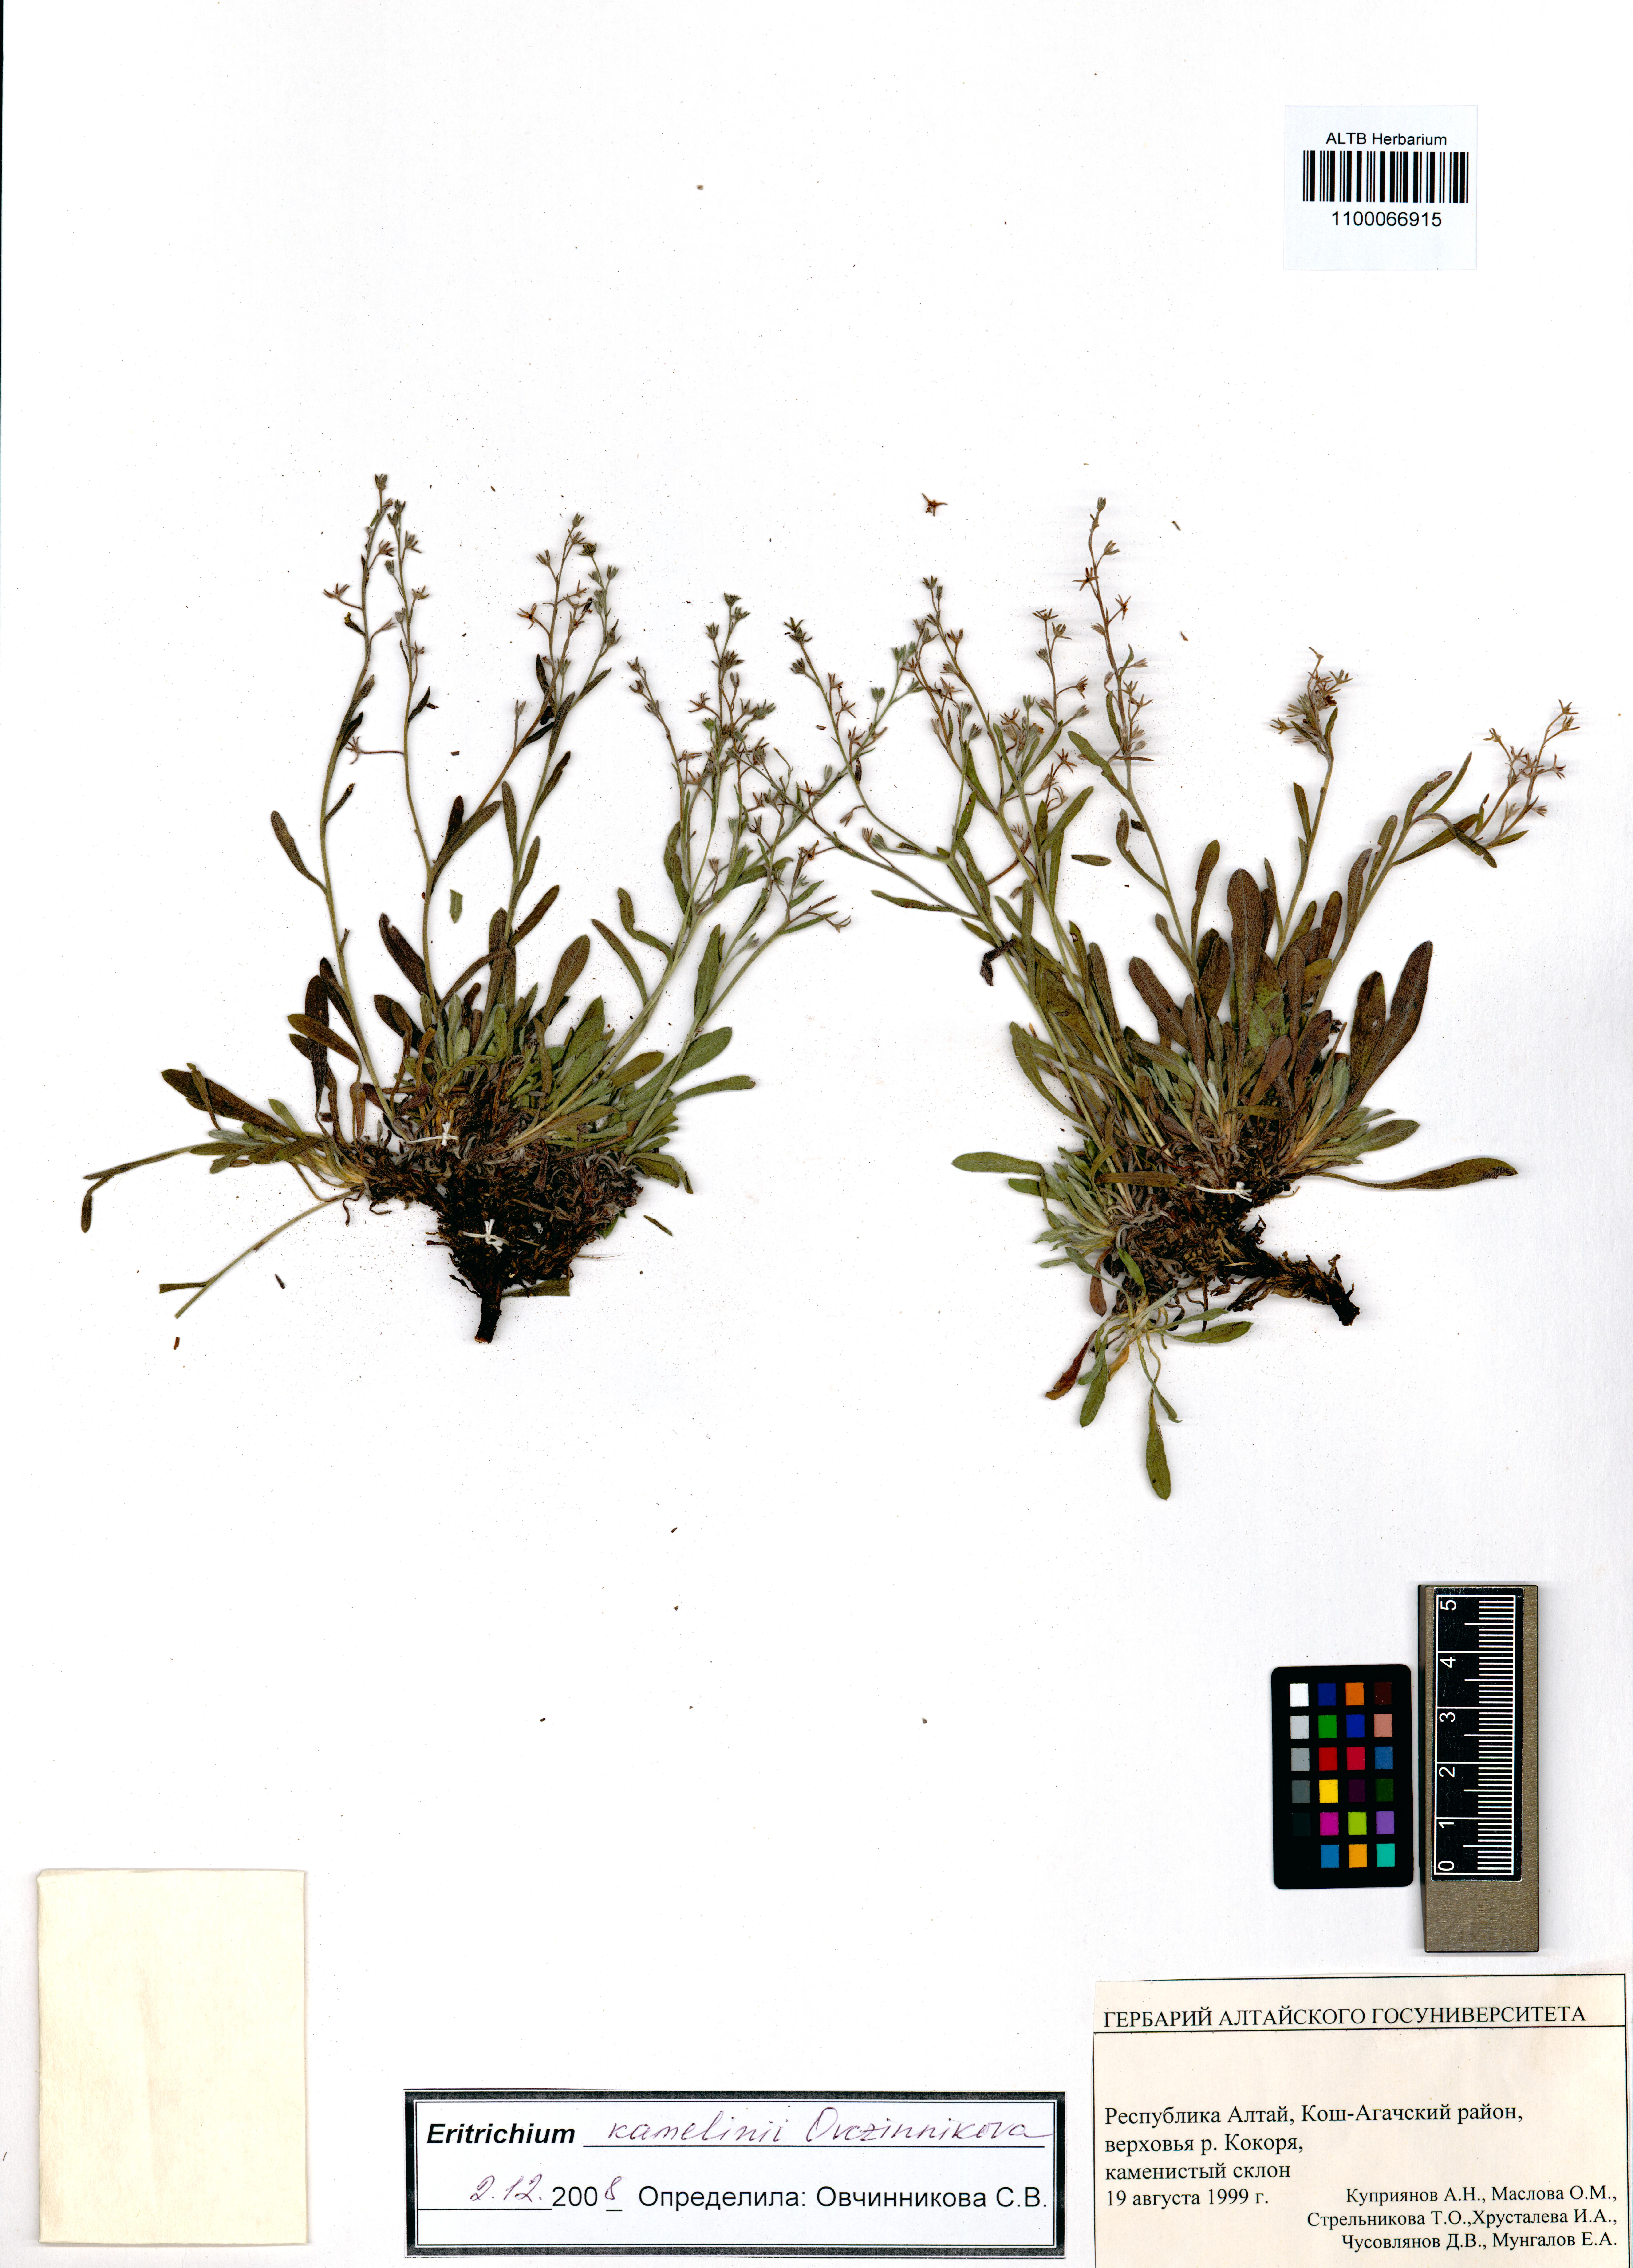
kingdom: Plantae
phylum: Tracheophyta
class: Magnoliopsida
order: Boraginales
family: Boraginaceae
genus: Eritrichium
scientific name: Eritrichium kamelinii
